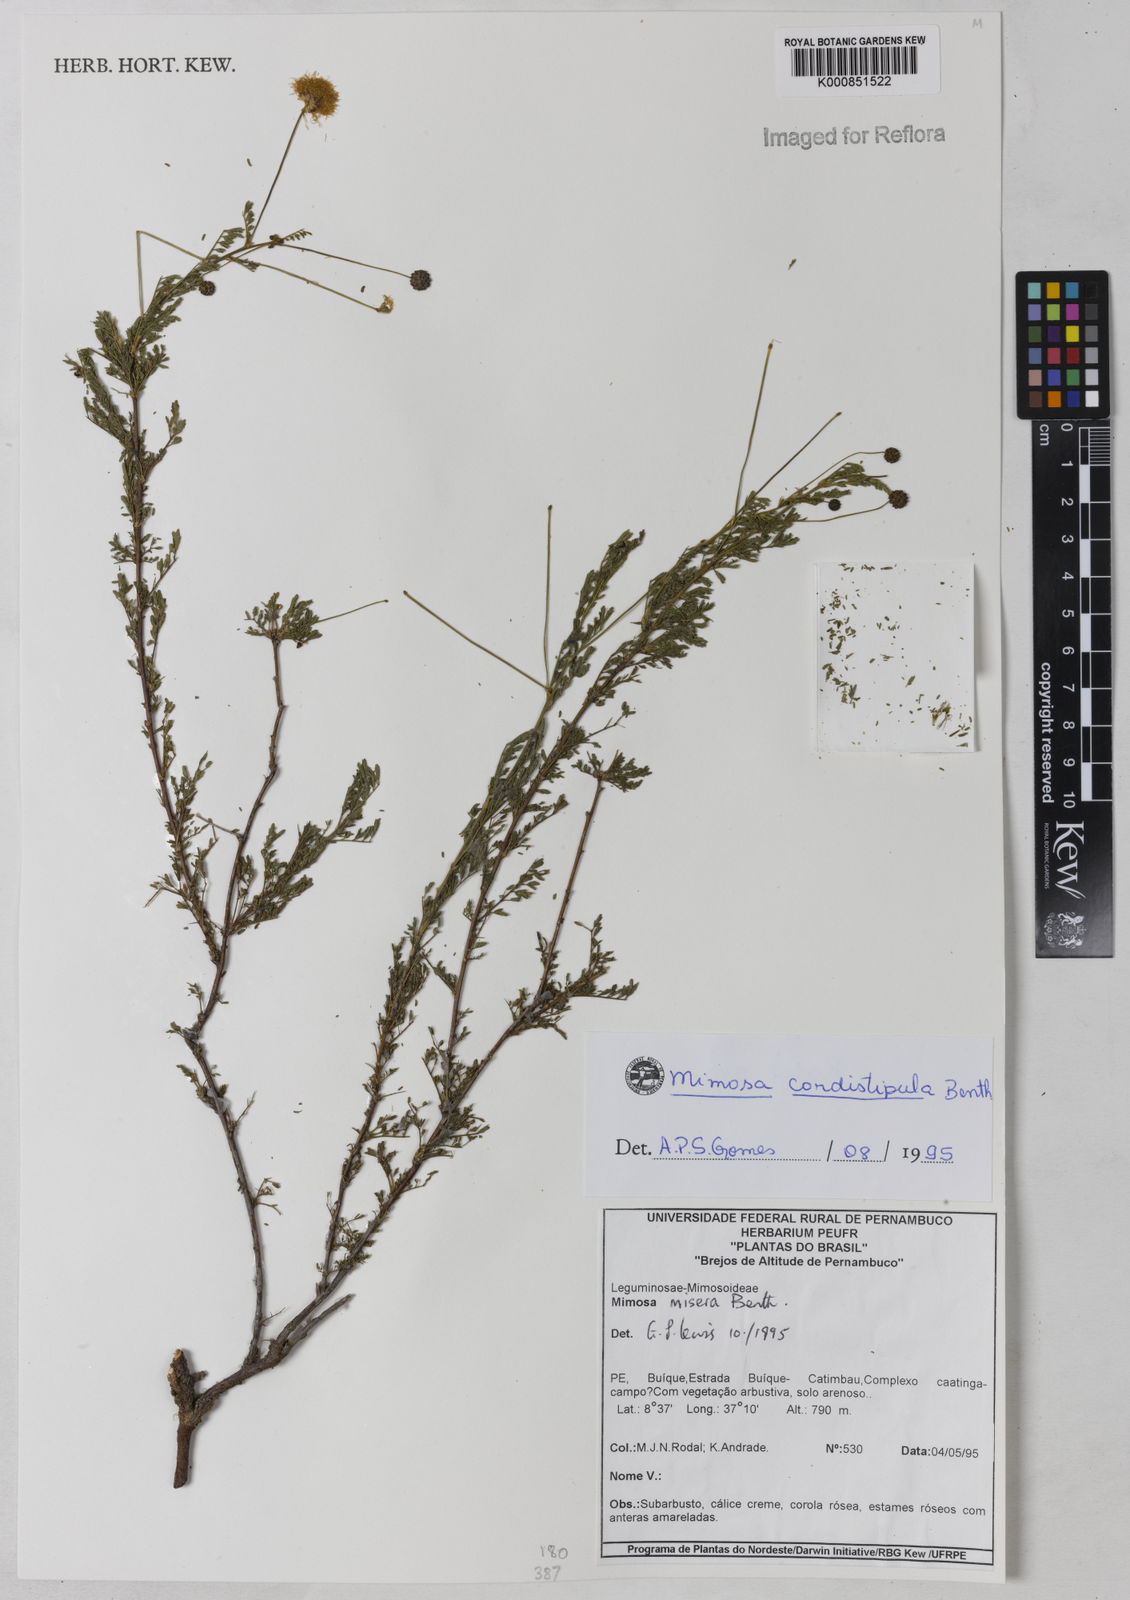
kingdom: Plantae
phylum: Tracheophyta
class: Magnoliopsida
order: Fabales
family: Fabaceae
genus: Mimosa
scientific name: Mimosa cordistipula
